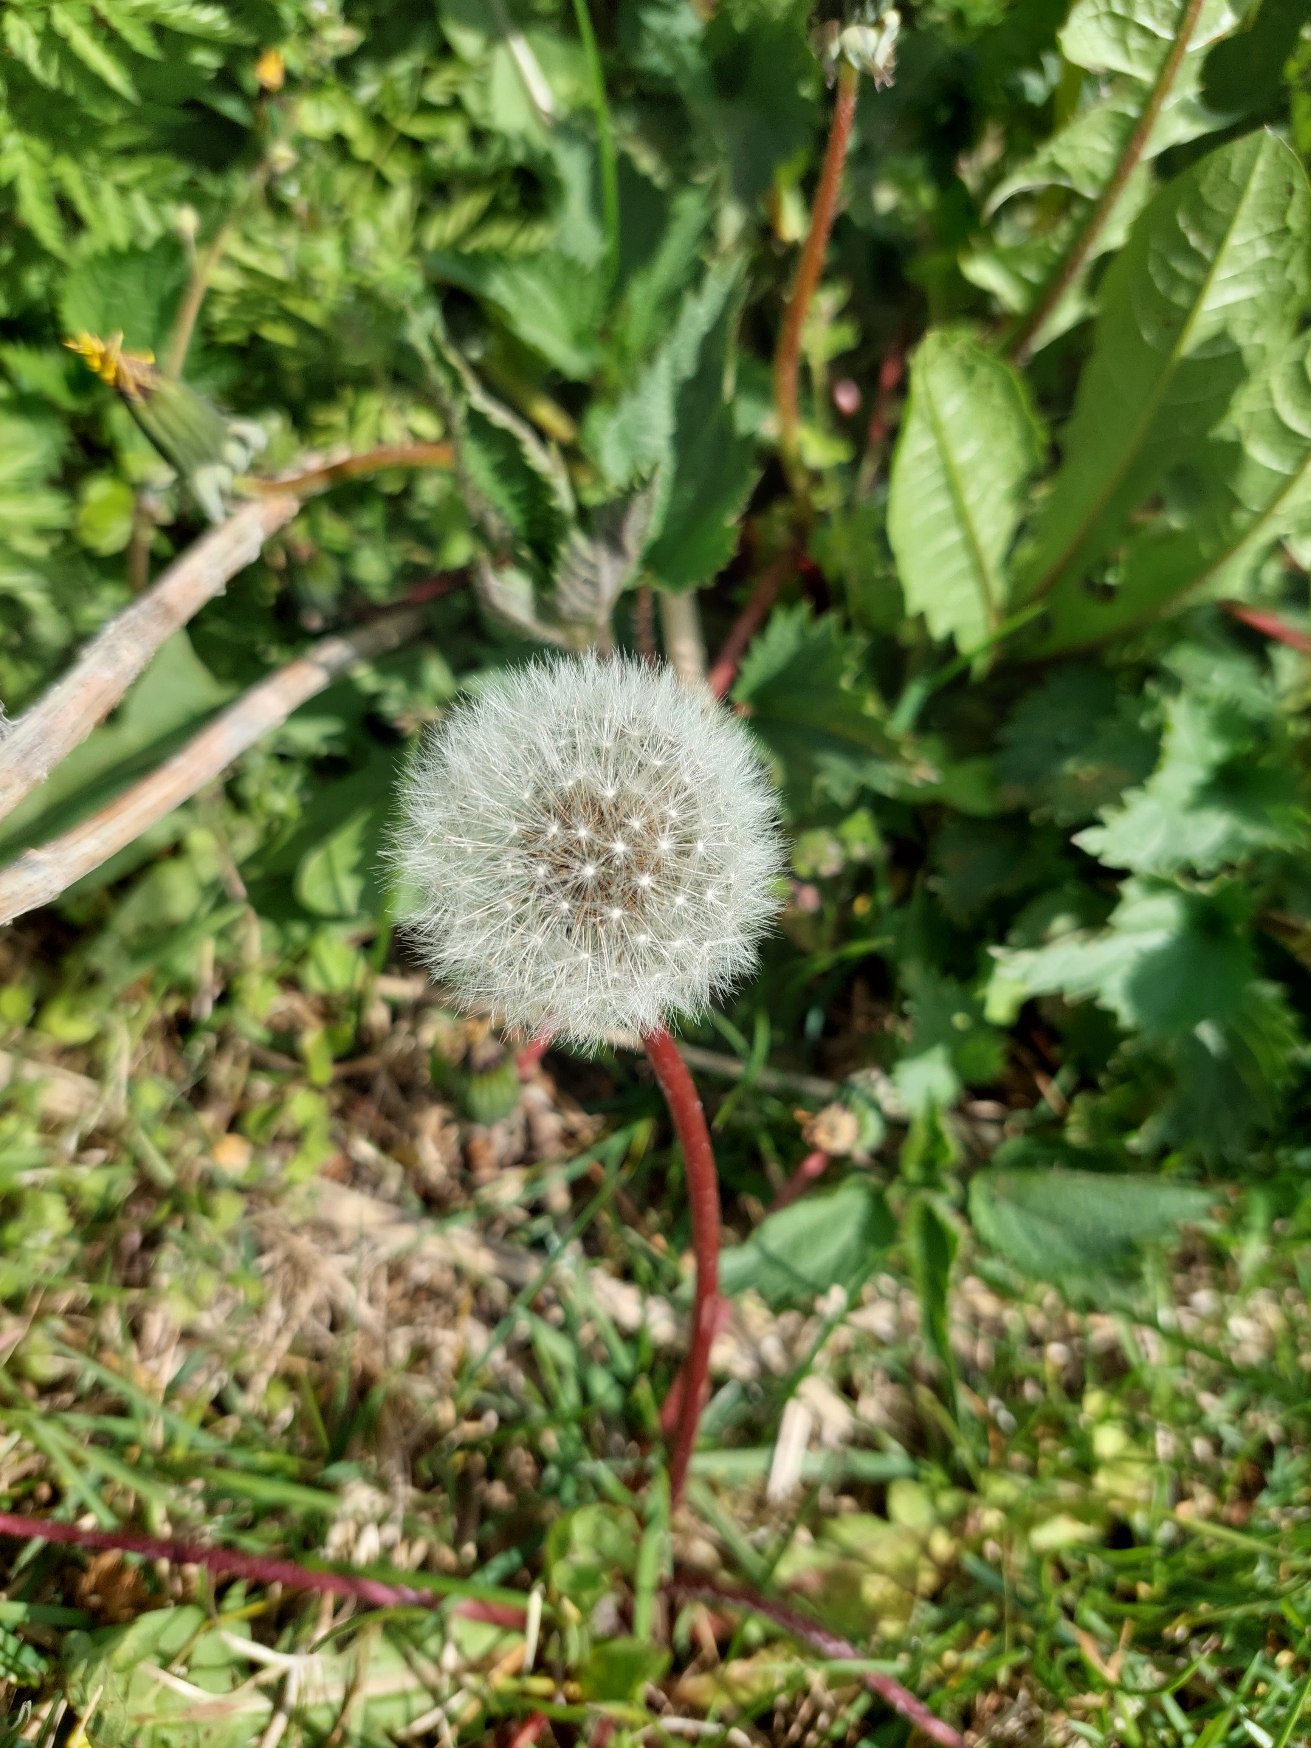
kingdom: Plantae
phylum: Tracheophyta
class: Magnoliopsida
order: Asterales
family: Asteraceae
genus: Taraxacum
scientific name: Taraxacum
